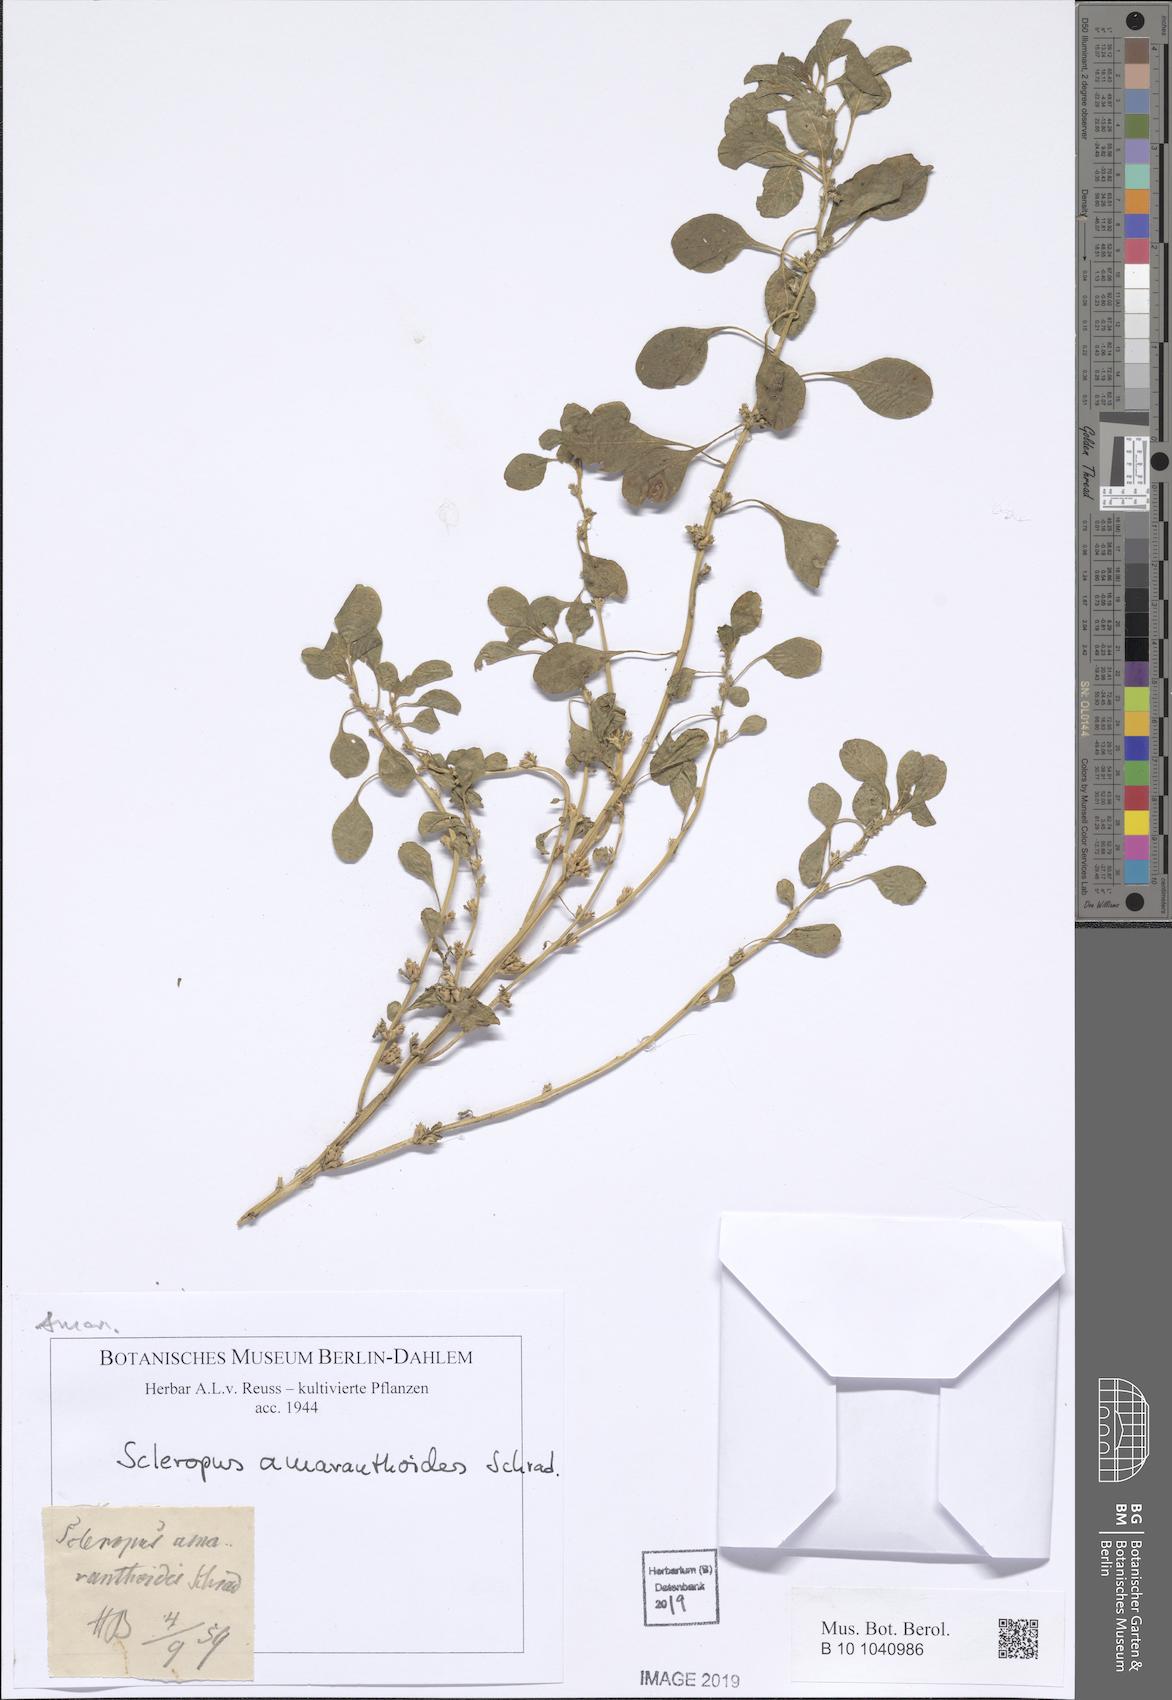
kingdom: Plantae
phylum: Tracheophyta
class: Magnoliopsida
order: Caryophyllales
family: Amaranthaceae
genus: Amaranthus
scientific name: Amaranthus crassipes
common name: Spreading amaranth
